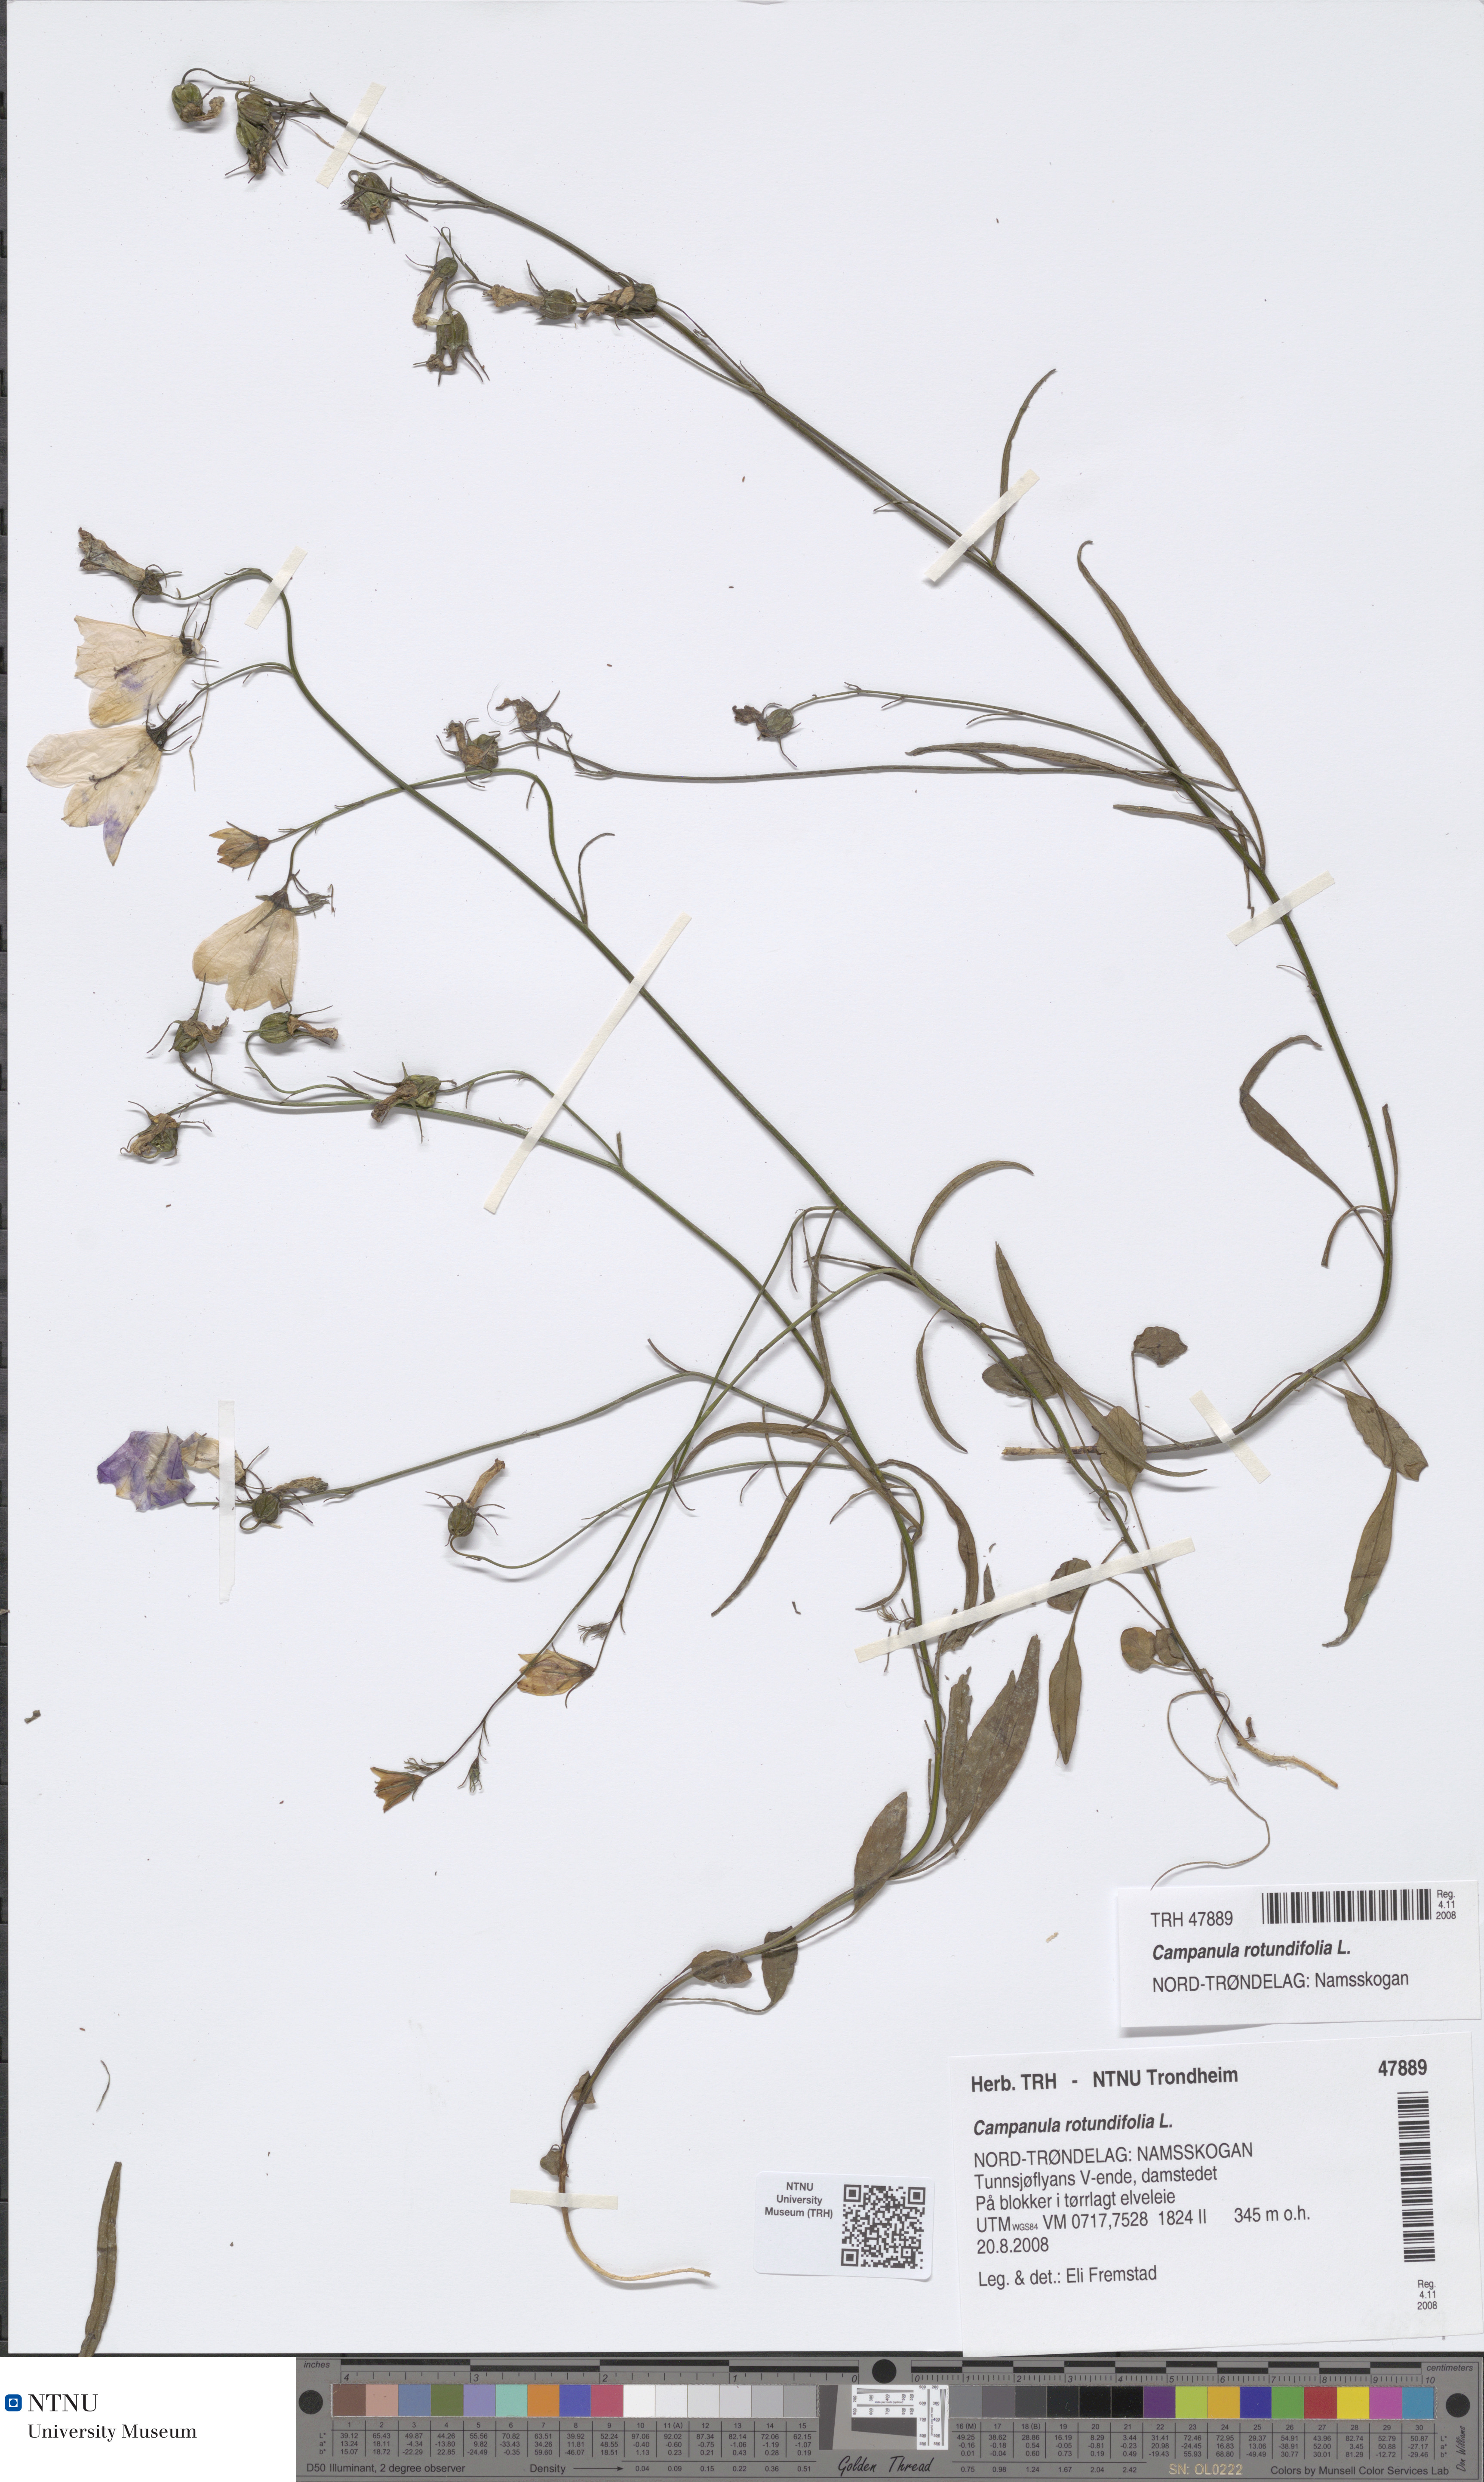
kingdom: Plantae
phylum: Tracheophyta
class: Magnoliopsida
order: Asterales
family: Campanulaceae
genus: Campanula
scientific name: Campanula rotundifolia
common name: Harebell
